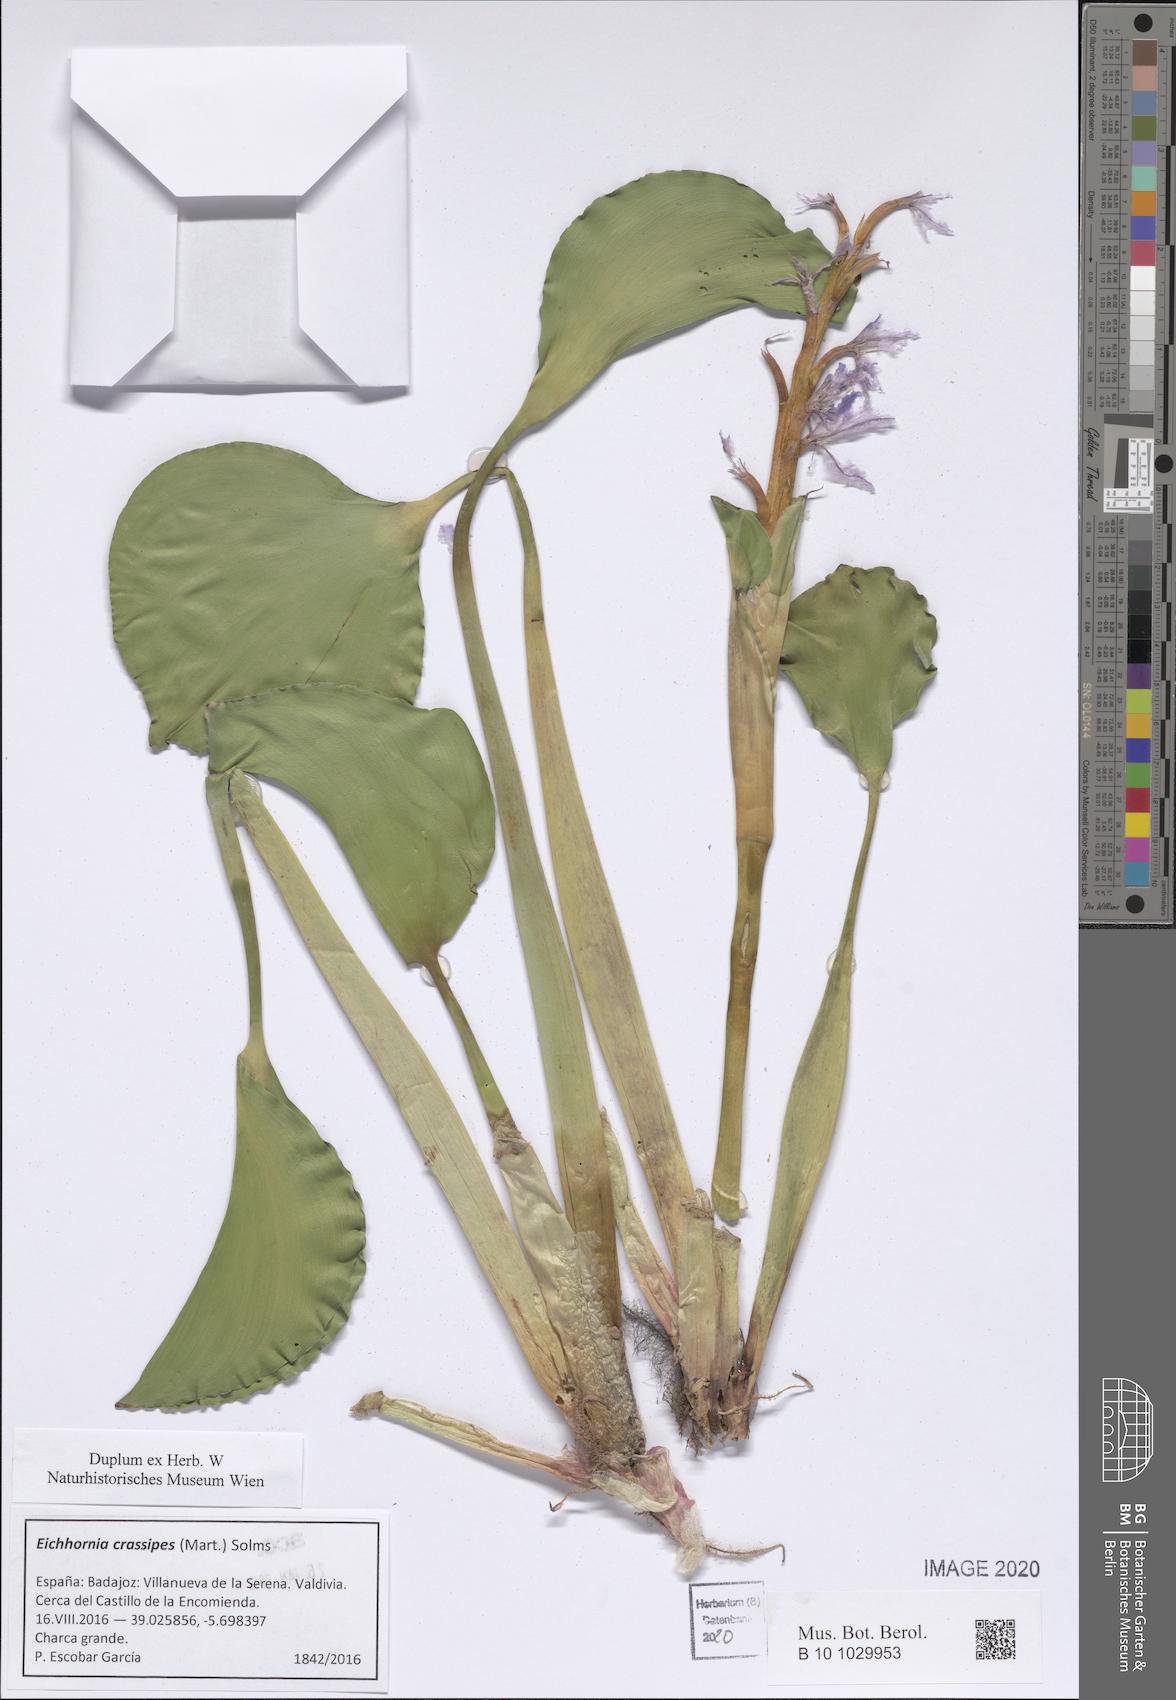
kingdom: Plantae
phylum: Tracheophyta
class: Liliopsida
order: Commelinales
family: Pontederiaceae
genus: Pontederia
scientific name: Pontederia crassipes
